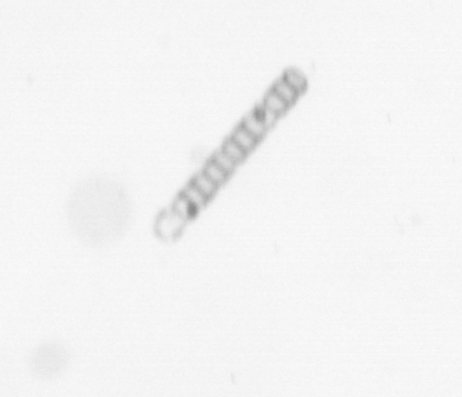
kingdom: Chromista
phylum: Ochrophyta
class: Bacillariophyceae
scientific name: Bacillariophyceae
